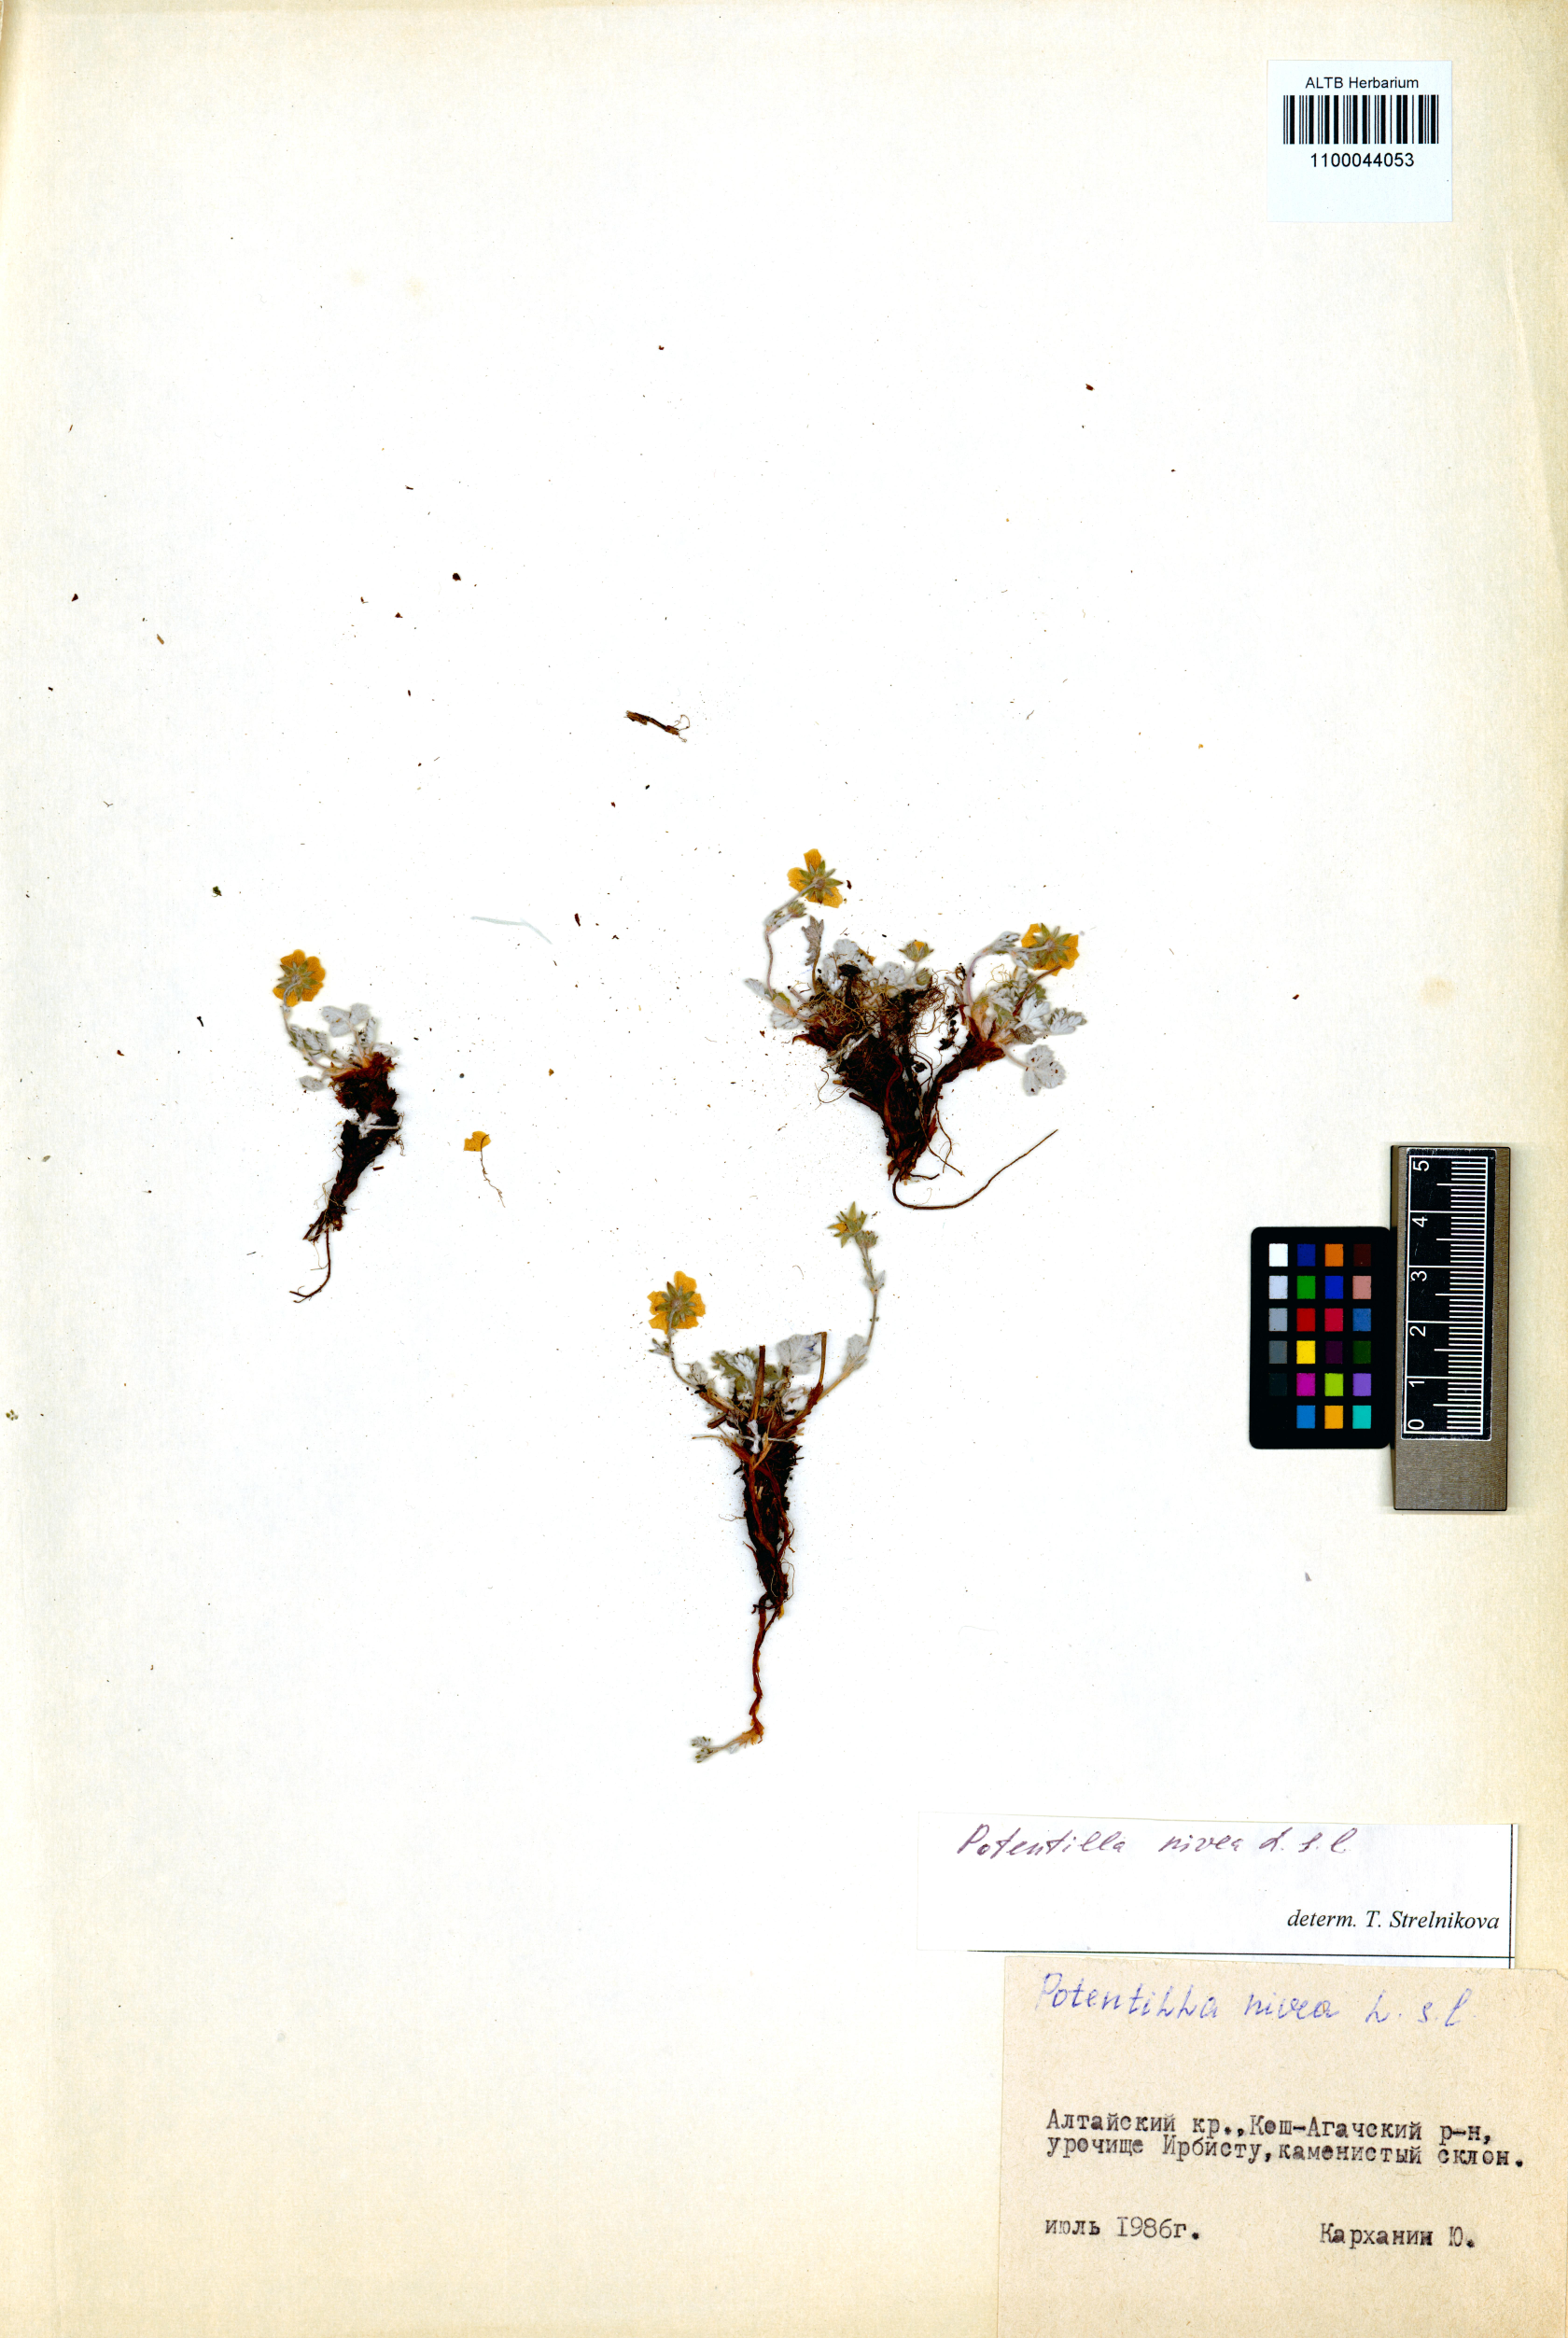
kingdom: Plantae
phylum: Tracheophyta
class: Magnoliopsida
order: Rosales
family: Rosaceae
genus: Potentilla
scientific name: Potentilla nivea
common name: Snow cinquefoil
